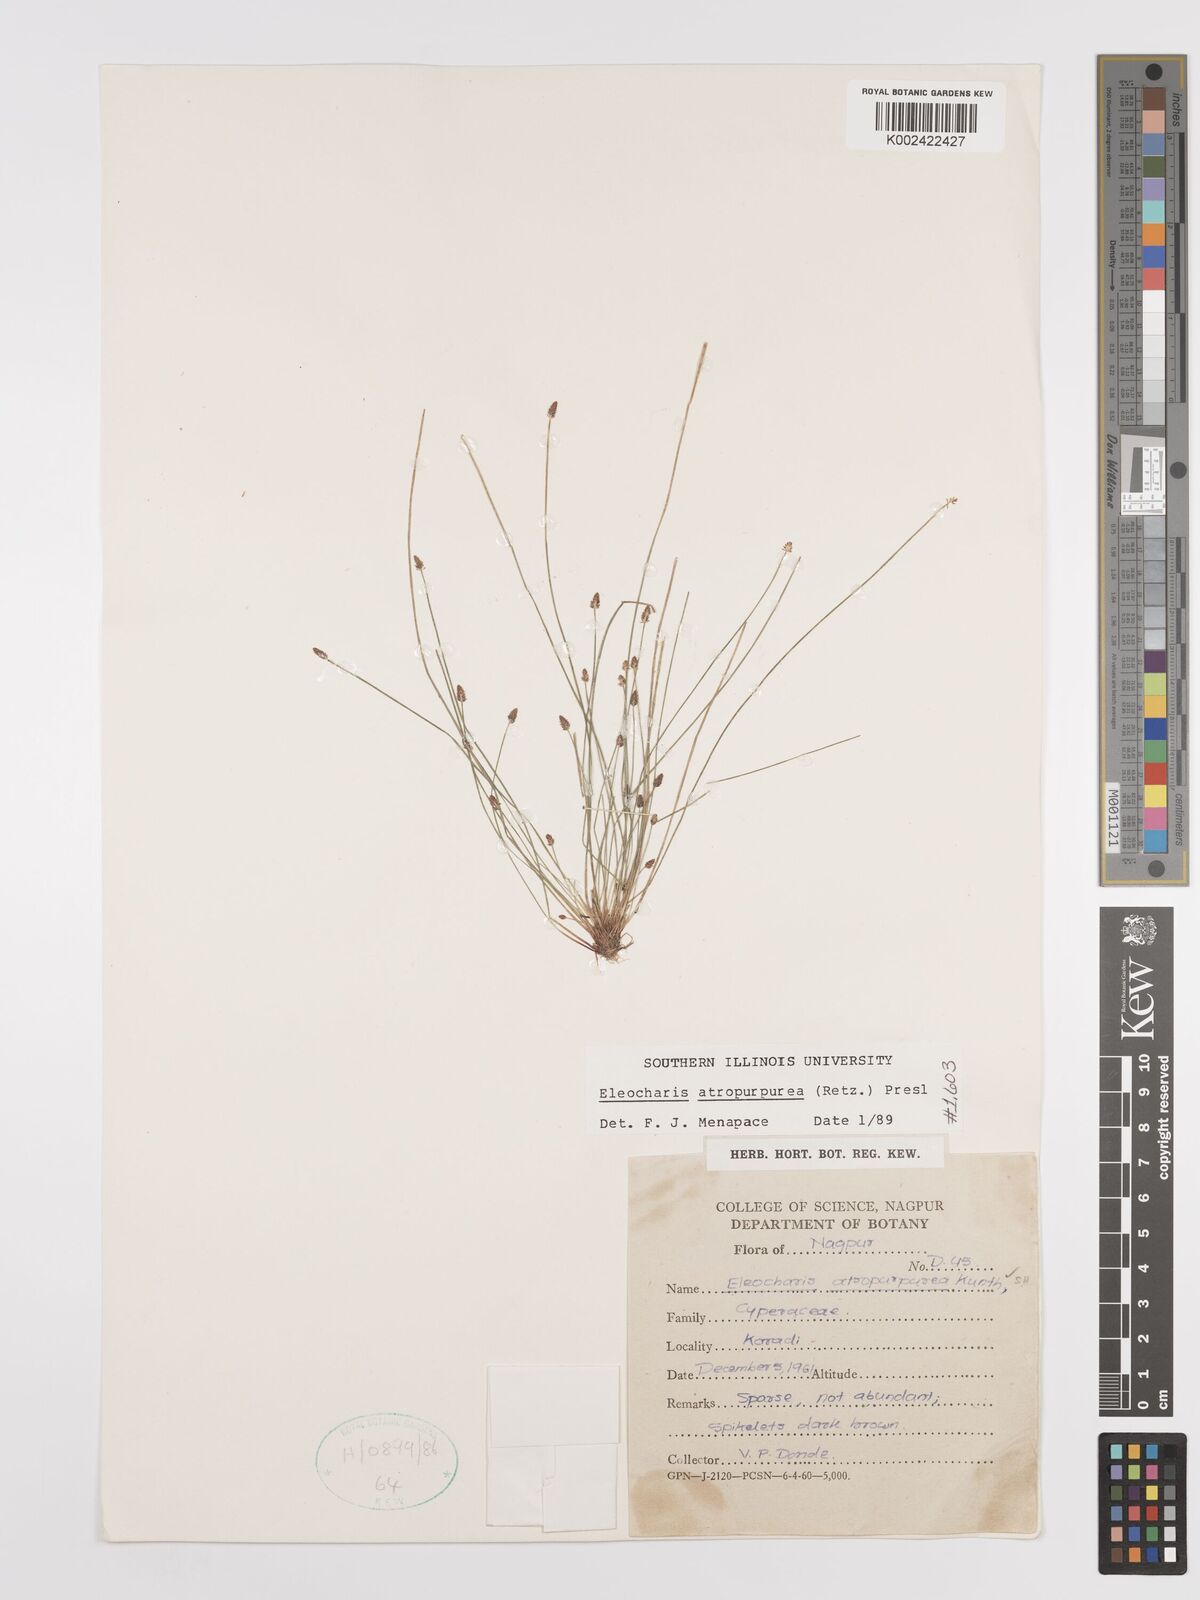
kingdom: Plantae
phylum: Tracheophyta
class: Liliopsida
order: Poales
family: Cyperaceae
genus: Eleocharis
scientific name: Eleocharis atropurpurea
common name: Purple spikerush
